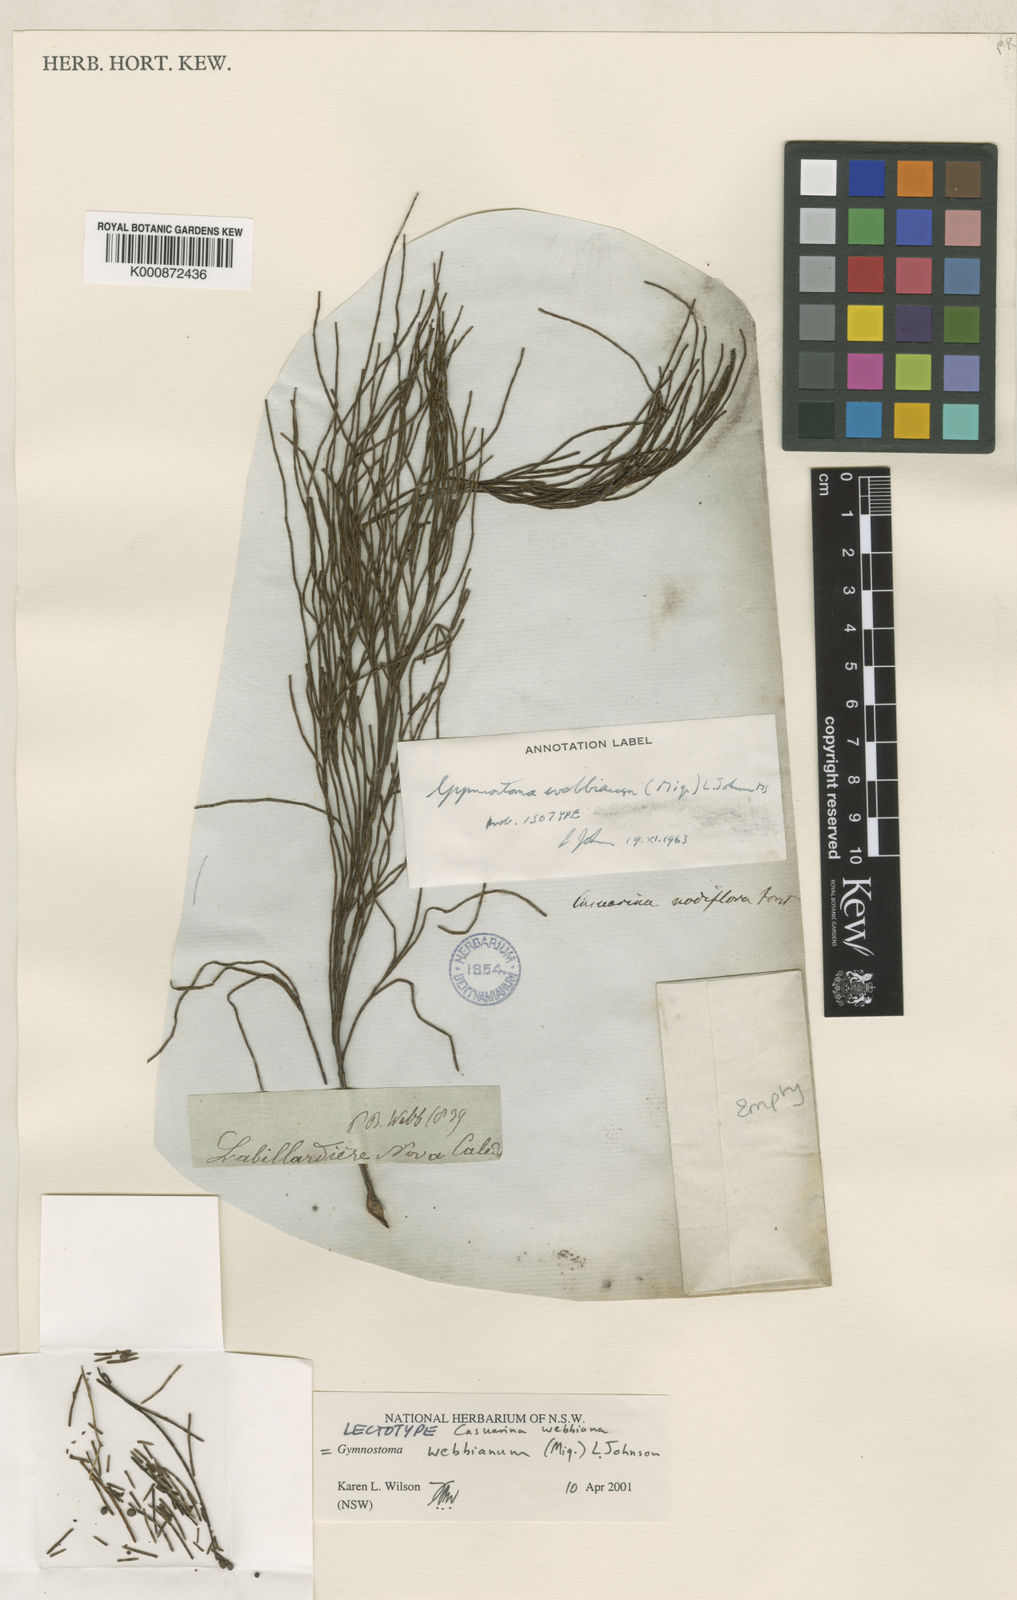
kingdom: Plantae
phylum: Tracheophyta
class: Magnoliopsida
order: Fagales
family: Casuarinaceae
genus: Gymnostoma
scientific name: Gymnostoma webbianum
